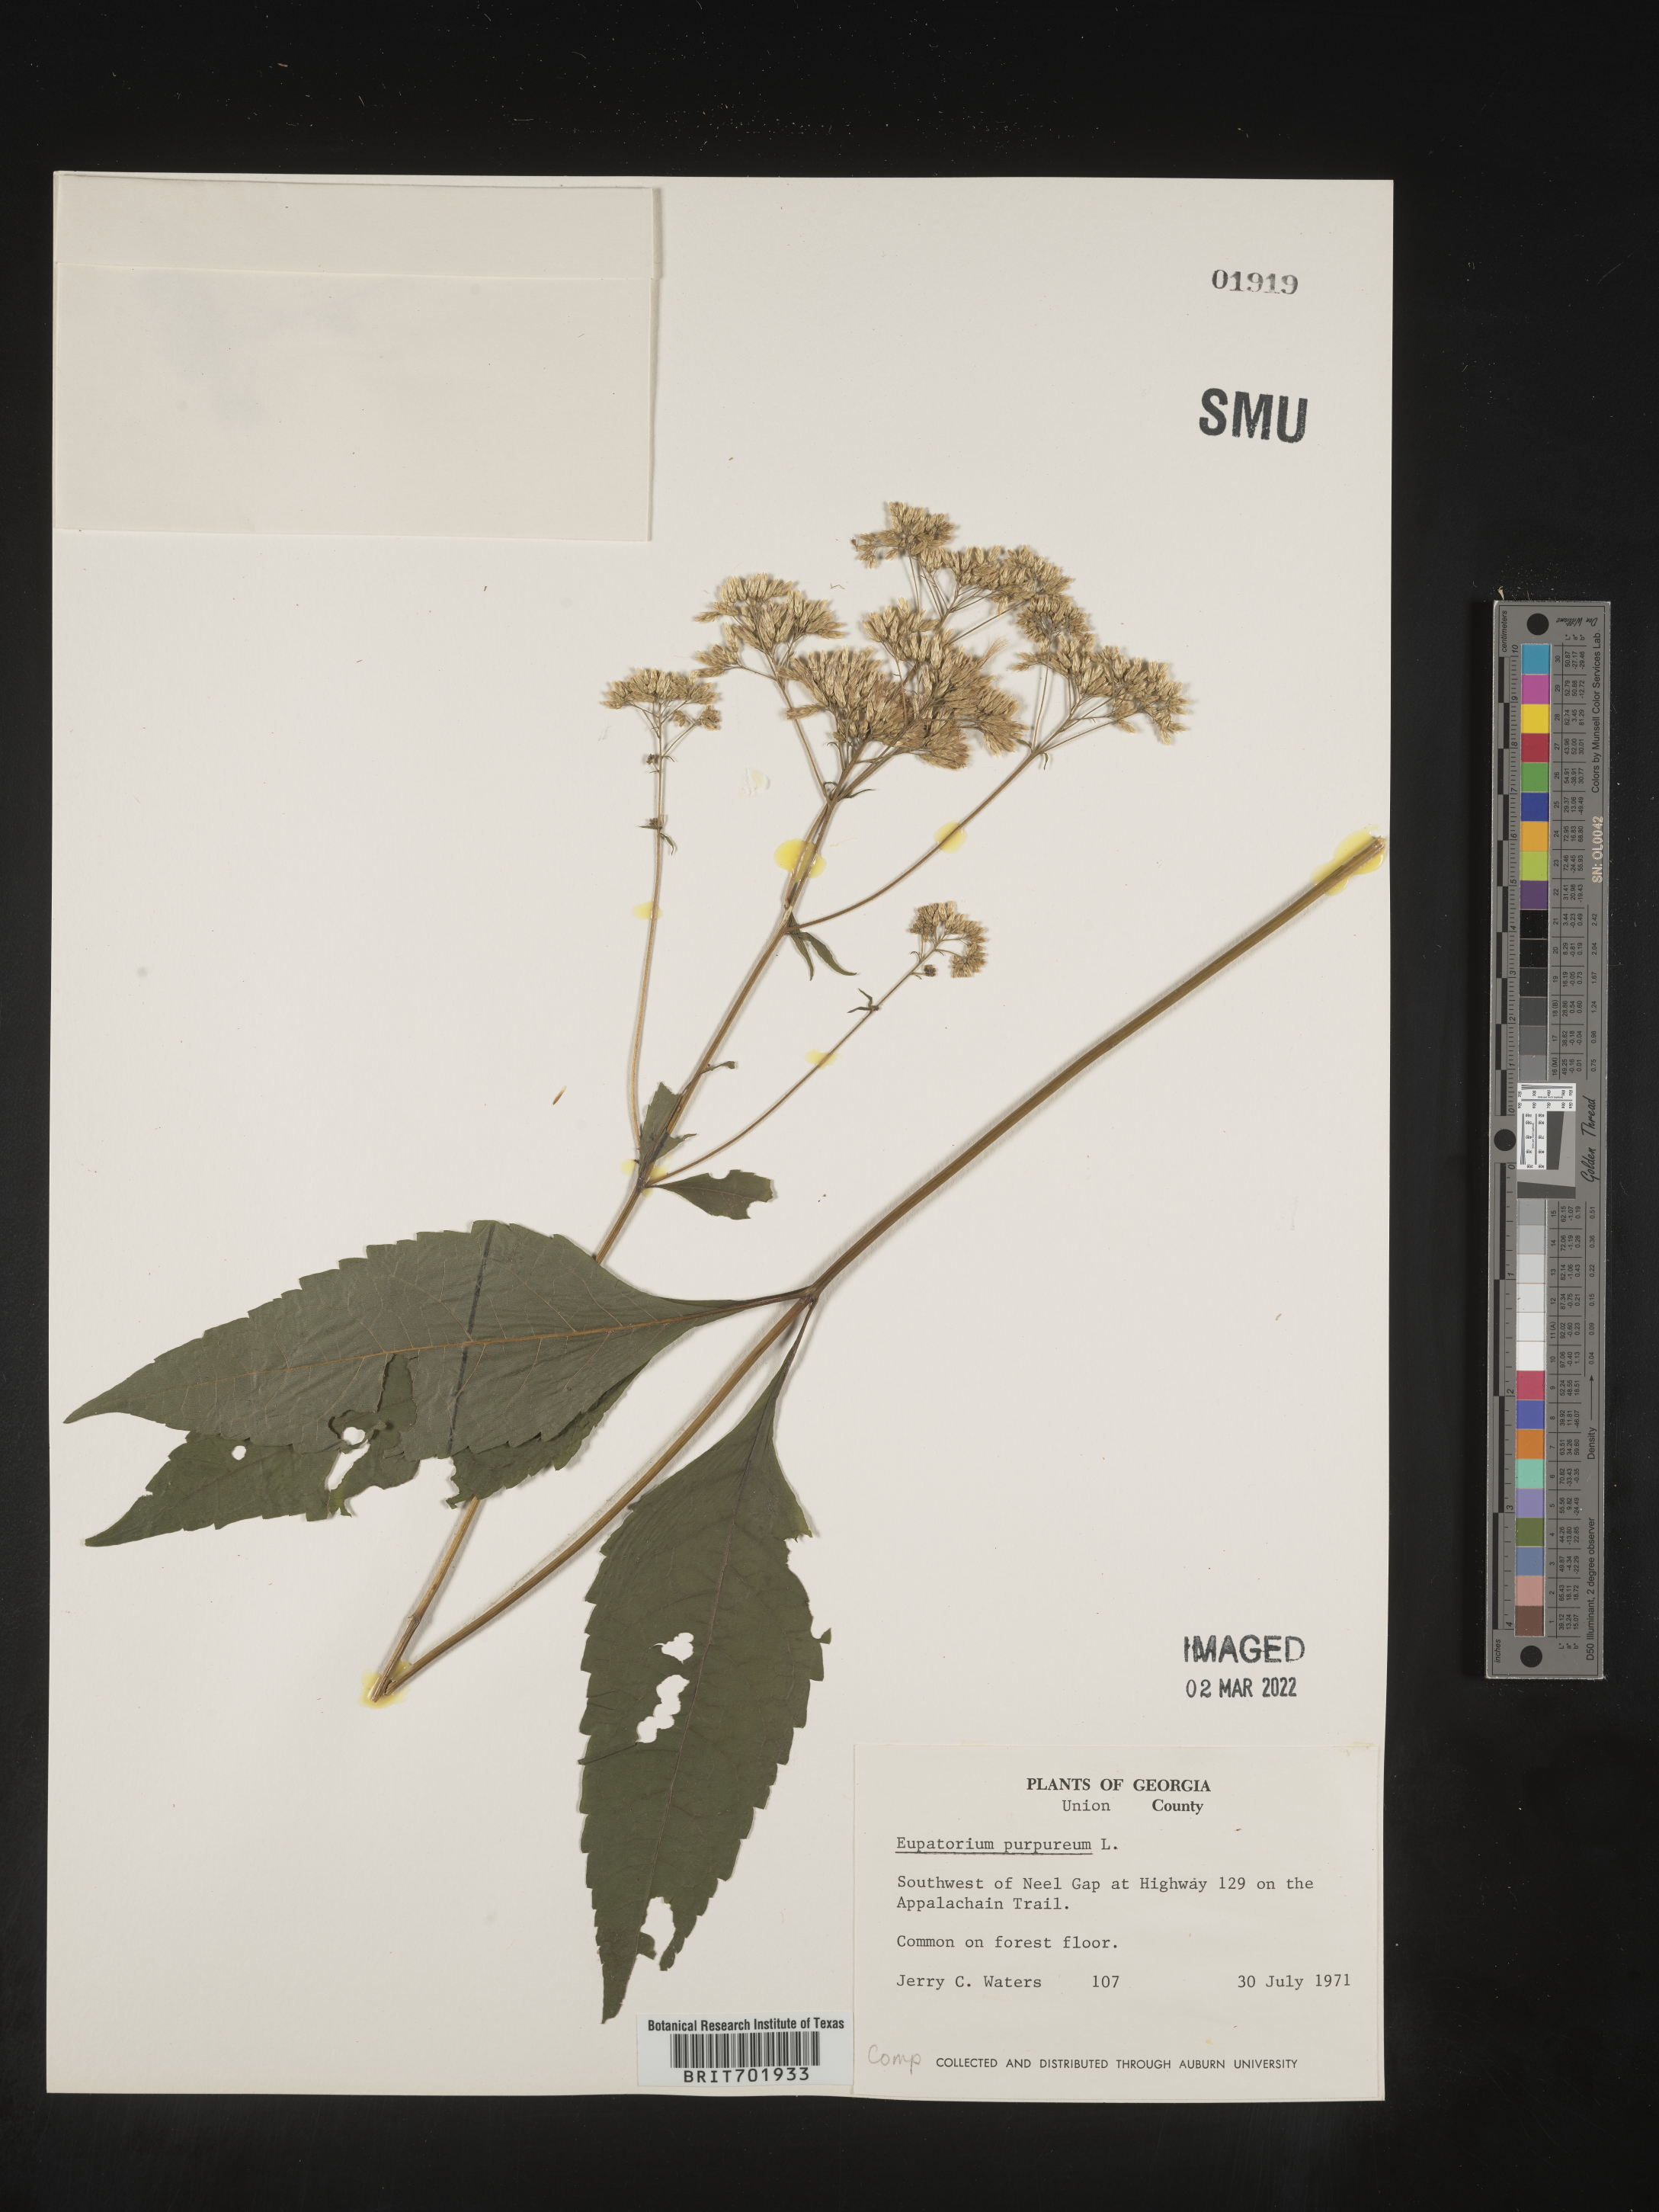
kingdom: Plantae
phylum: Tracheophyta
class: Magnoliopsida
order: Asterales
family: Asteraceae
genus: Eupatorium
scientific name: Eupatorium quaternum
